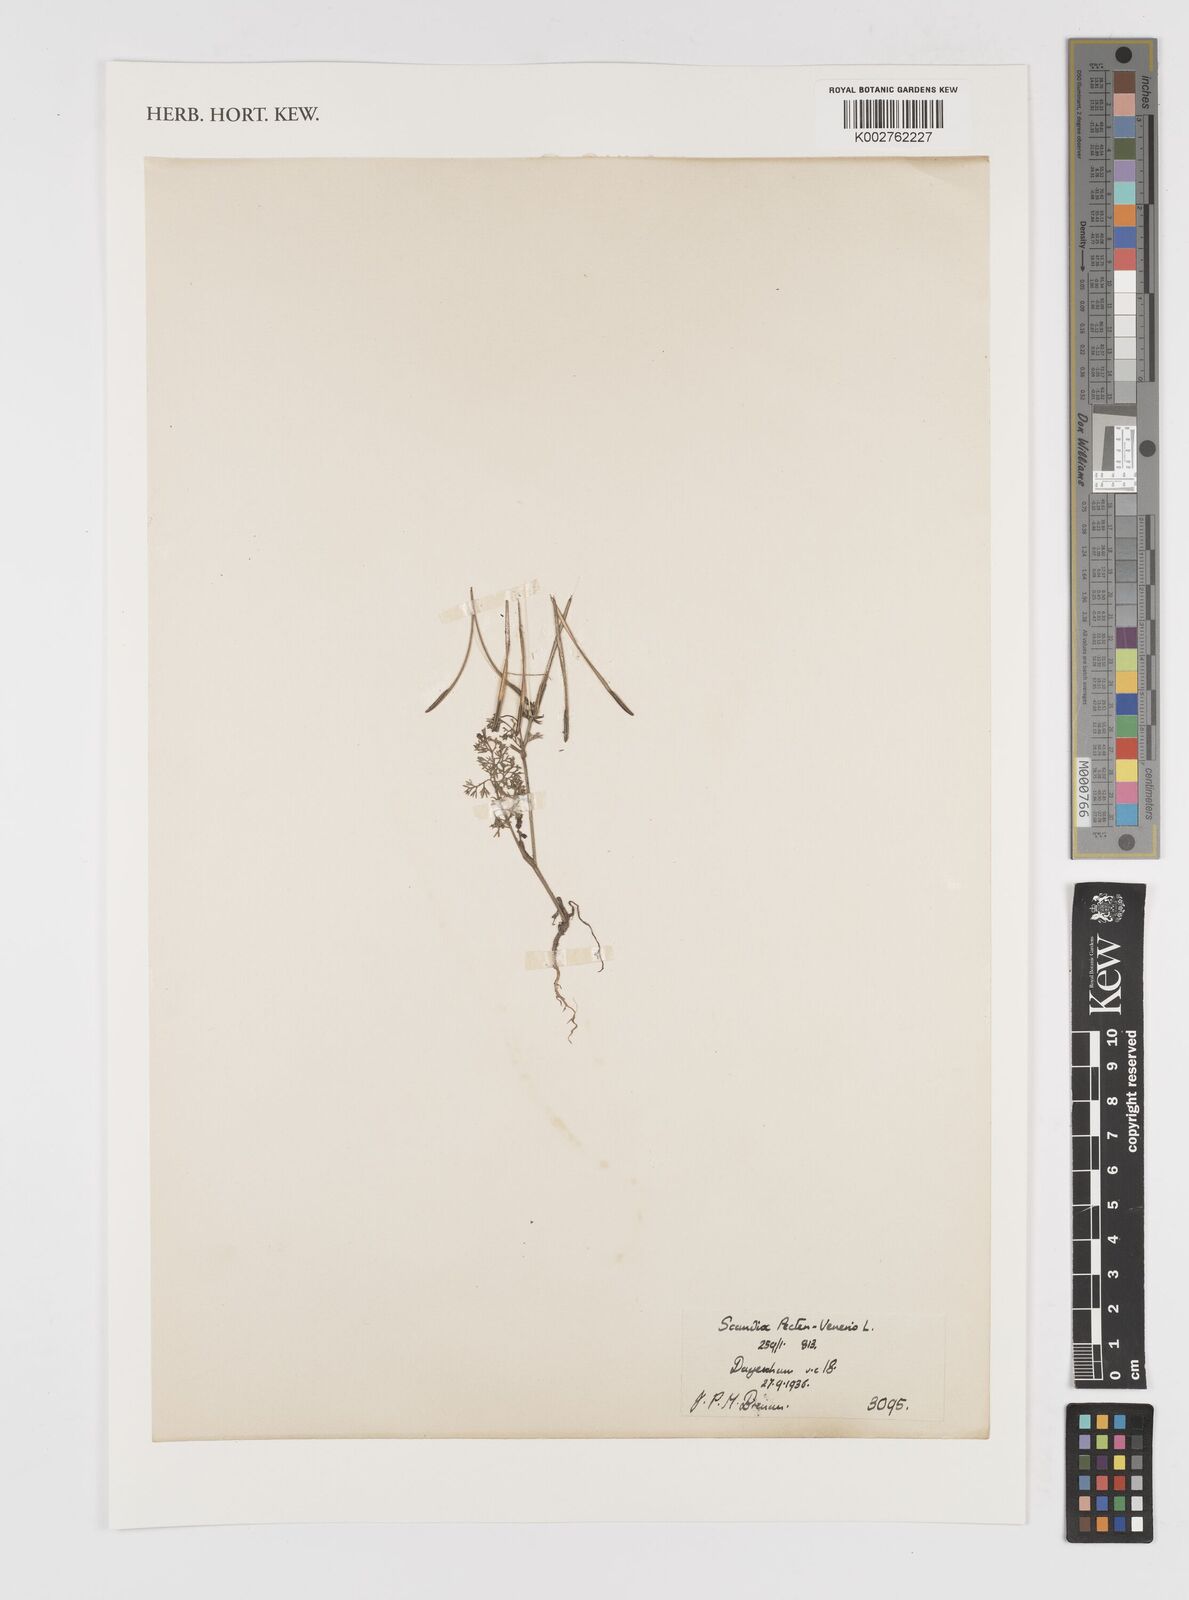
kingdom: Plantae
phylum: Tracheophyta
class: Magnoliopsida
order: Apiales
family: Apiaceae
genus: Scandix
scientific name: Scandix pecten-veneris
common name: Shepherd's-needle
